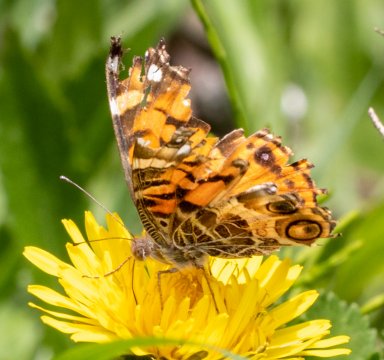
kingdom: Animalia
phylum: Arthropoda
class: Insecta
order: Lepidoptera
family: Nymphalidae
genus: Vanessa
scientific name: Vanessa virginiensis
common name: American Lady
